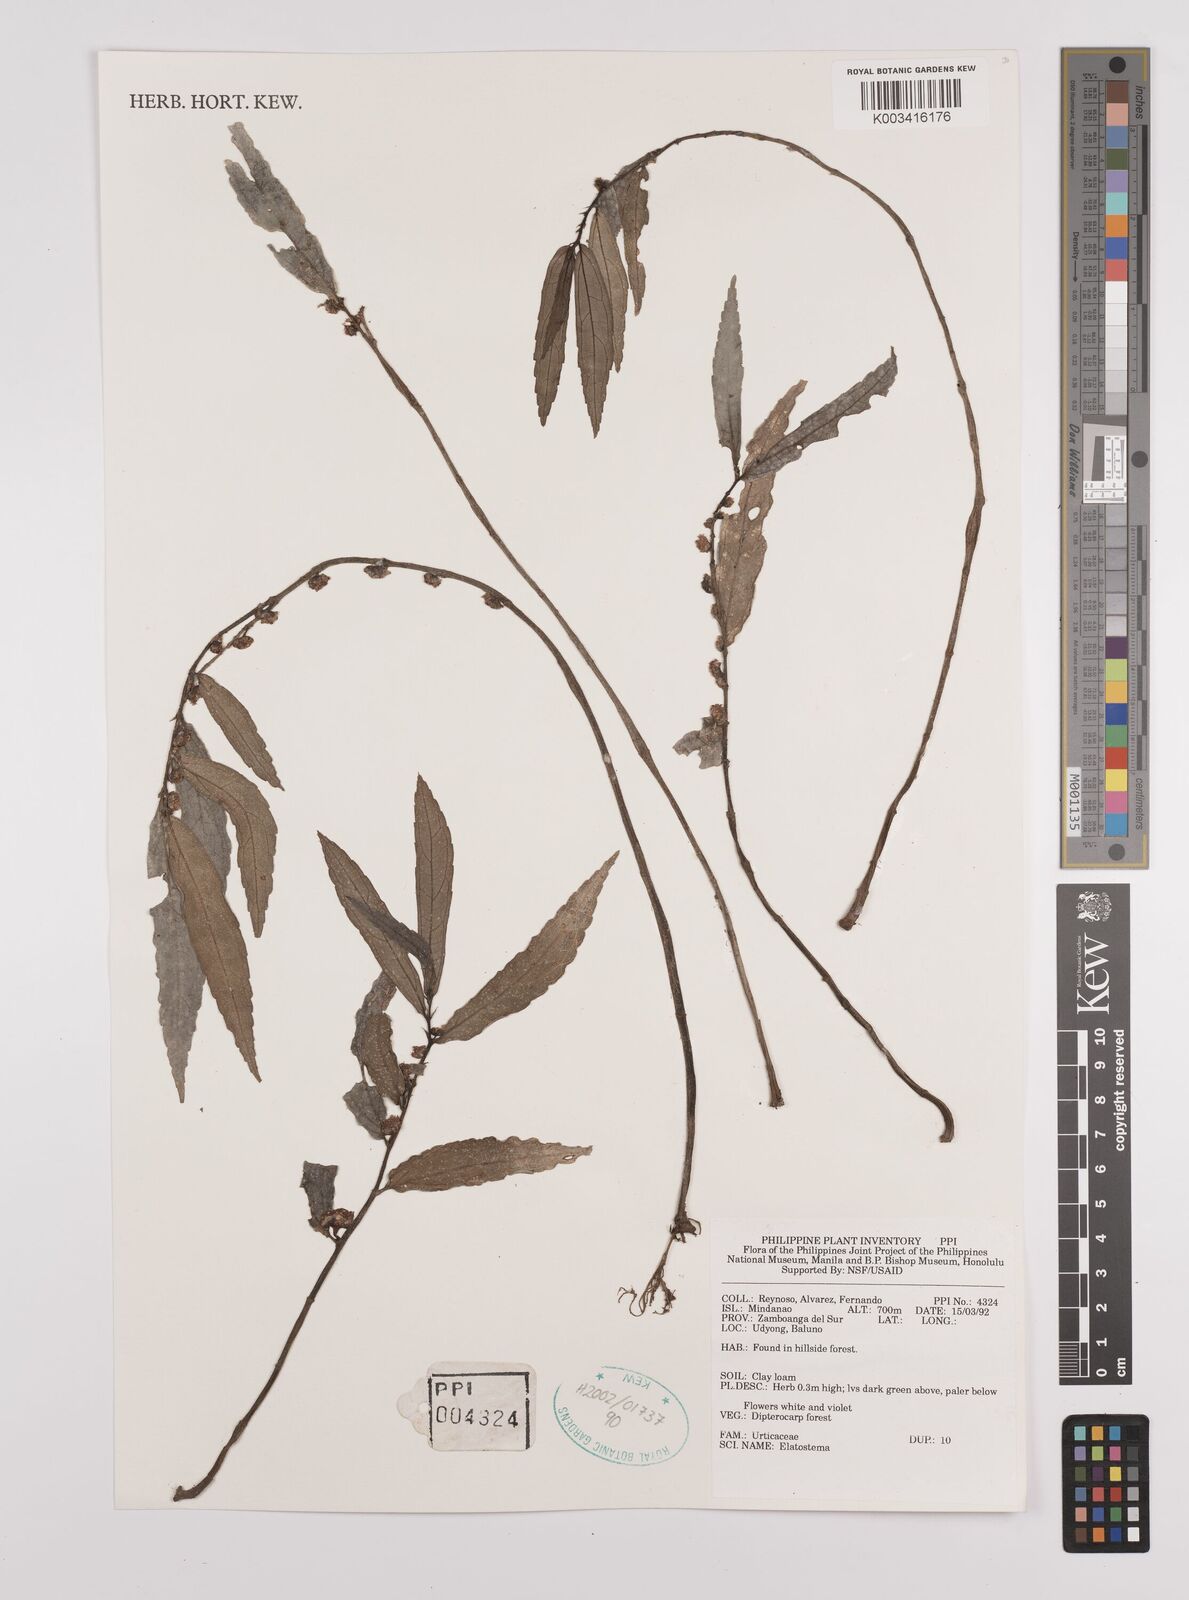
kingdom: Plantae
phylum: Tracheophyta
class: Magnoliopsida
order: Rosales
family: Urticaceae
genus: Elatostema
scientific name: Elatostema
